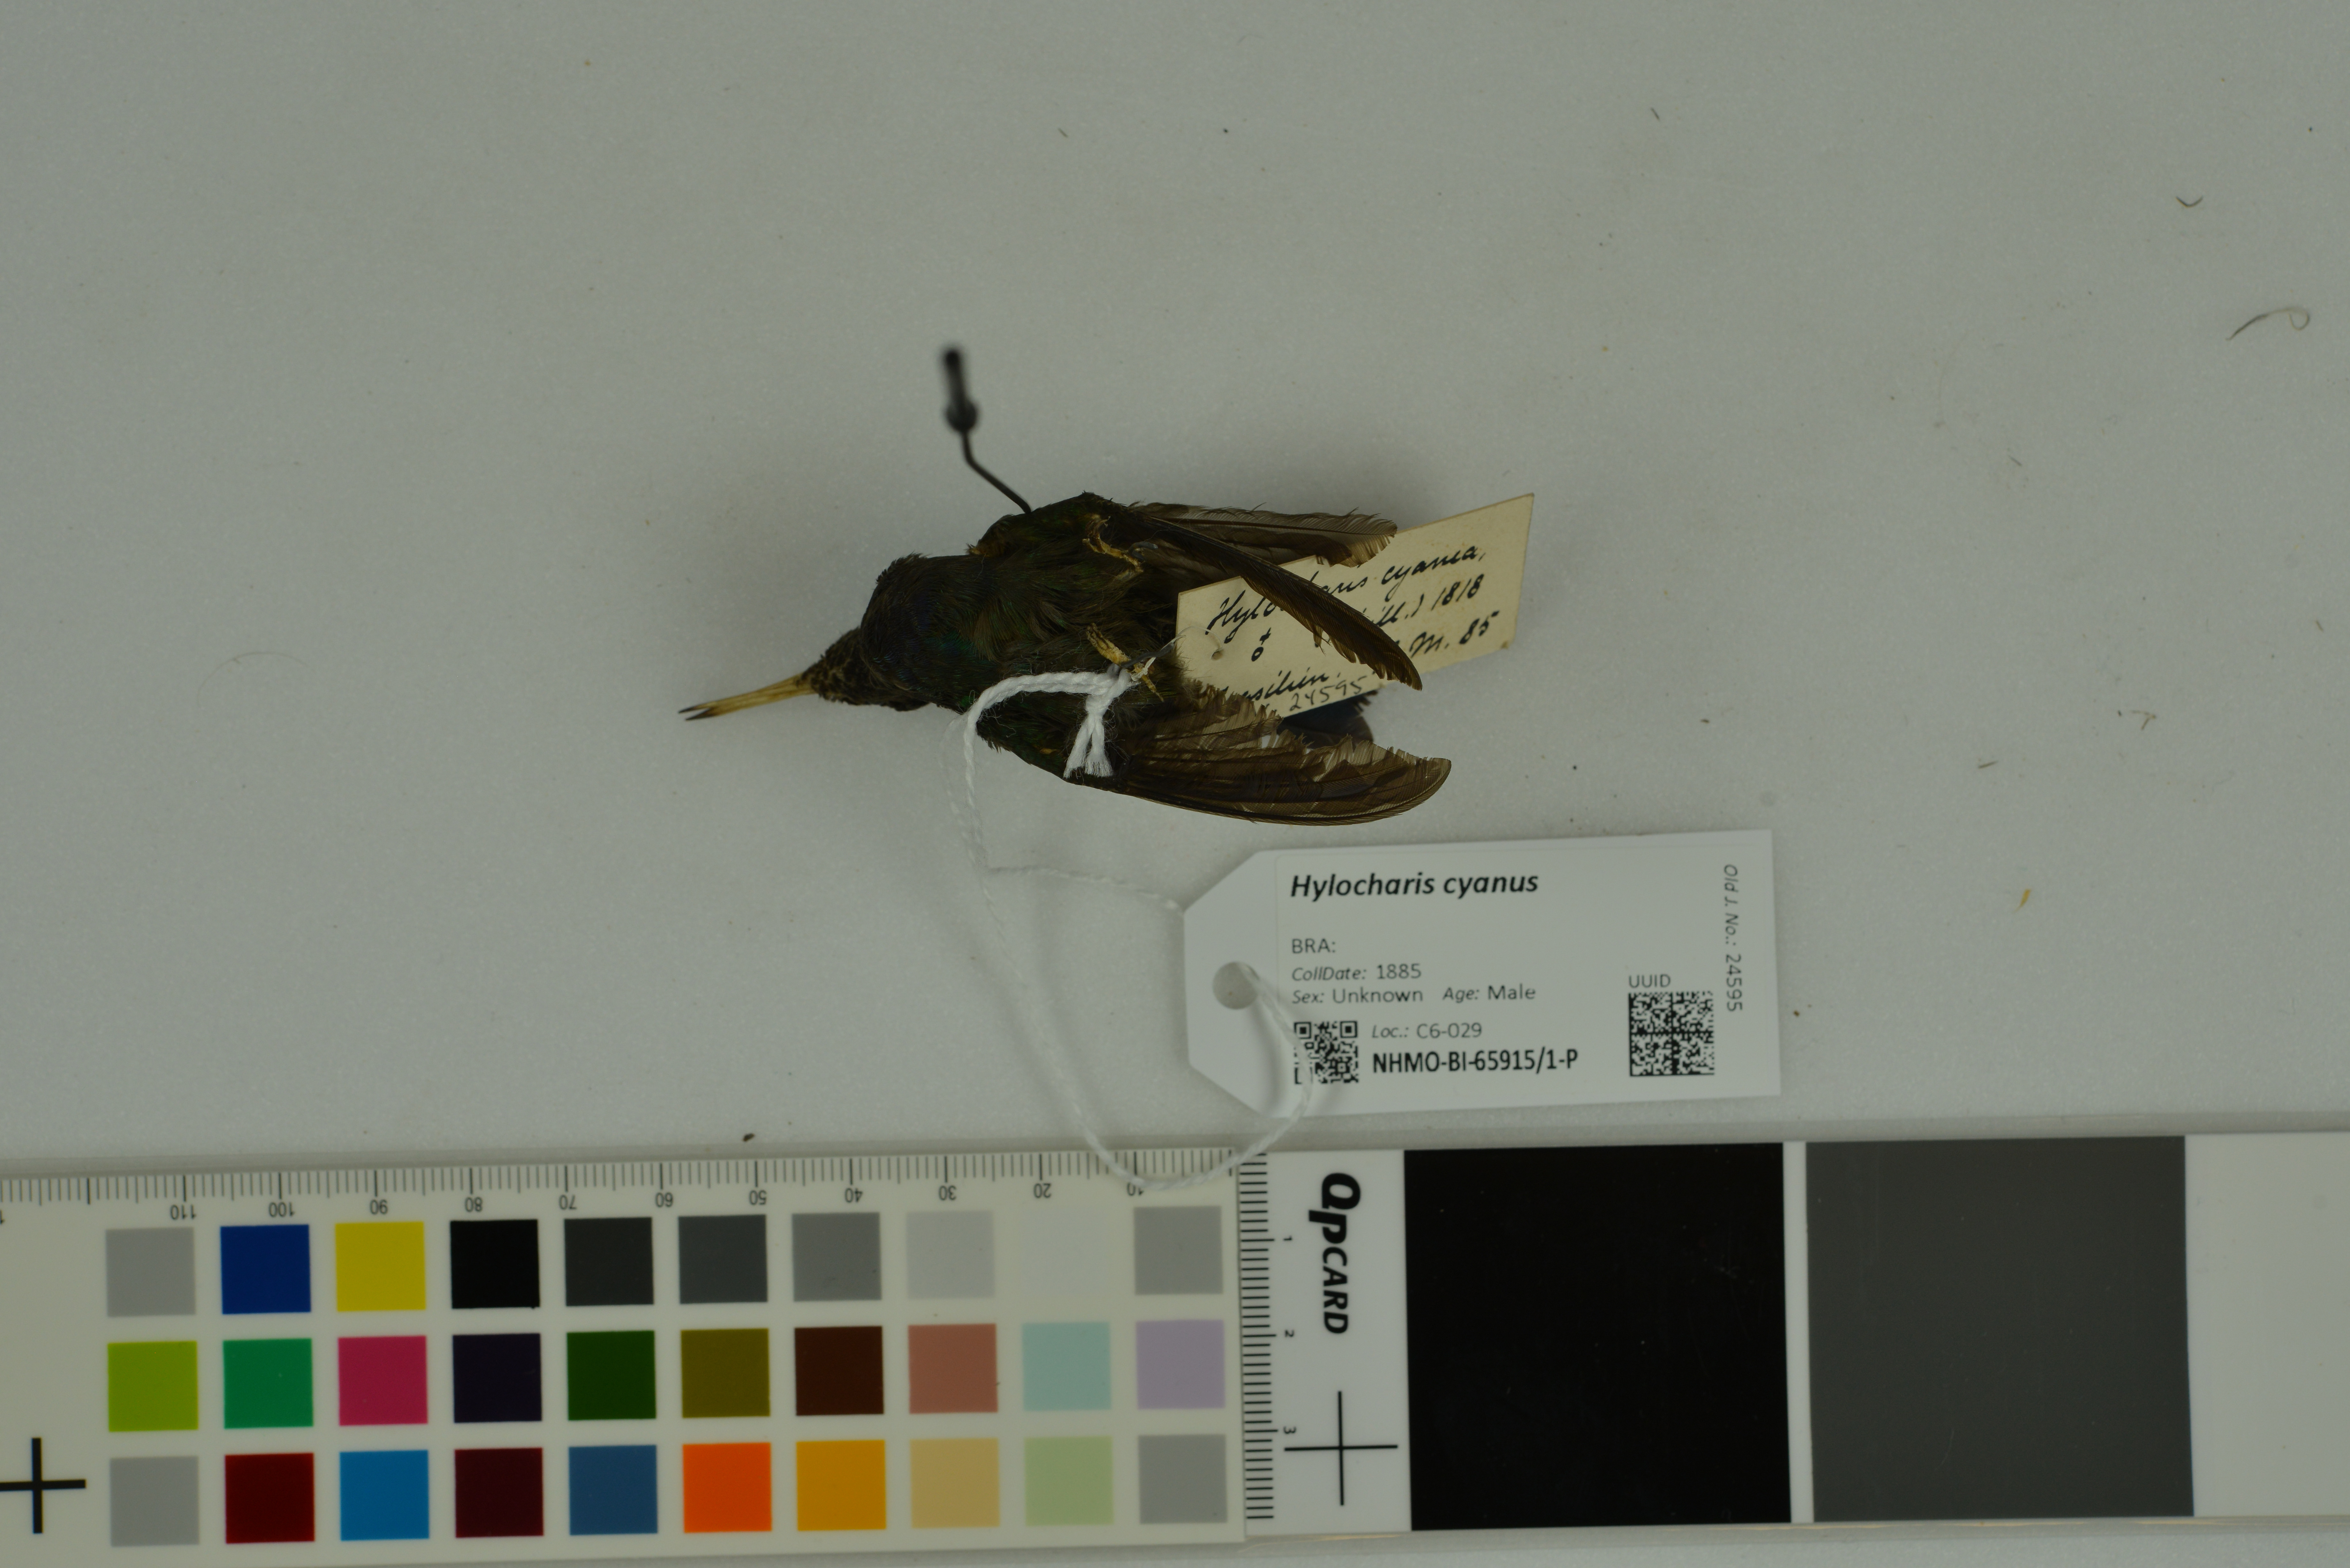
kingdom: Animalia
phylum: Chordata
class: Aves
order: Apodiformes
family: Trochilidae
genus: Chlorestes
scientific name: Chlorestes cyanus
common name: White-chinned sapphire
